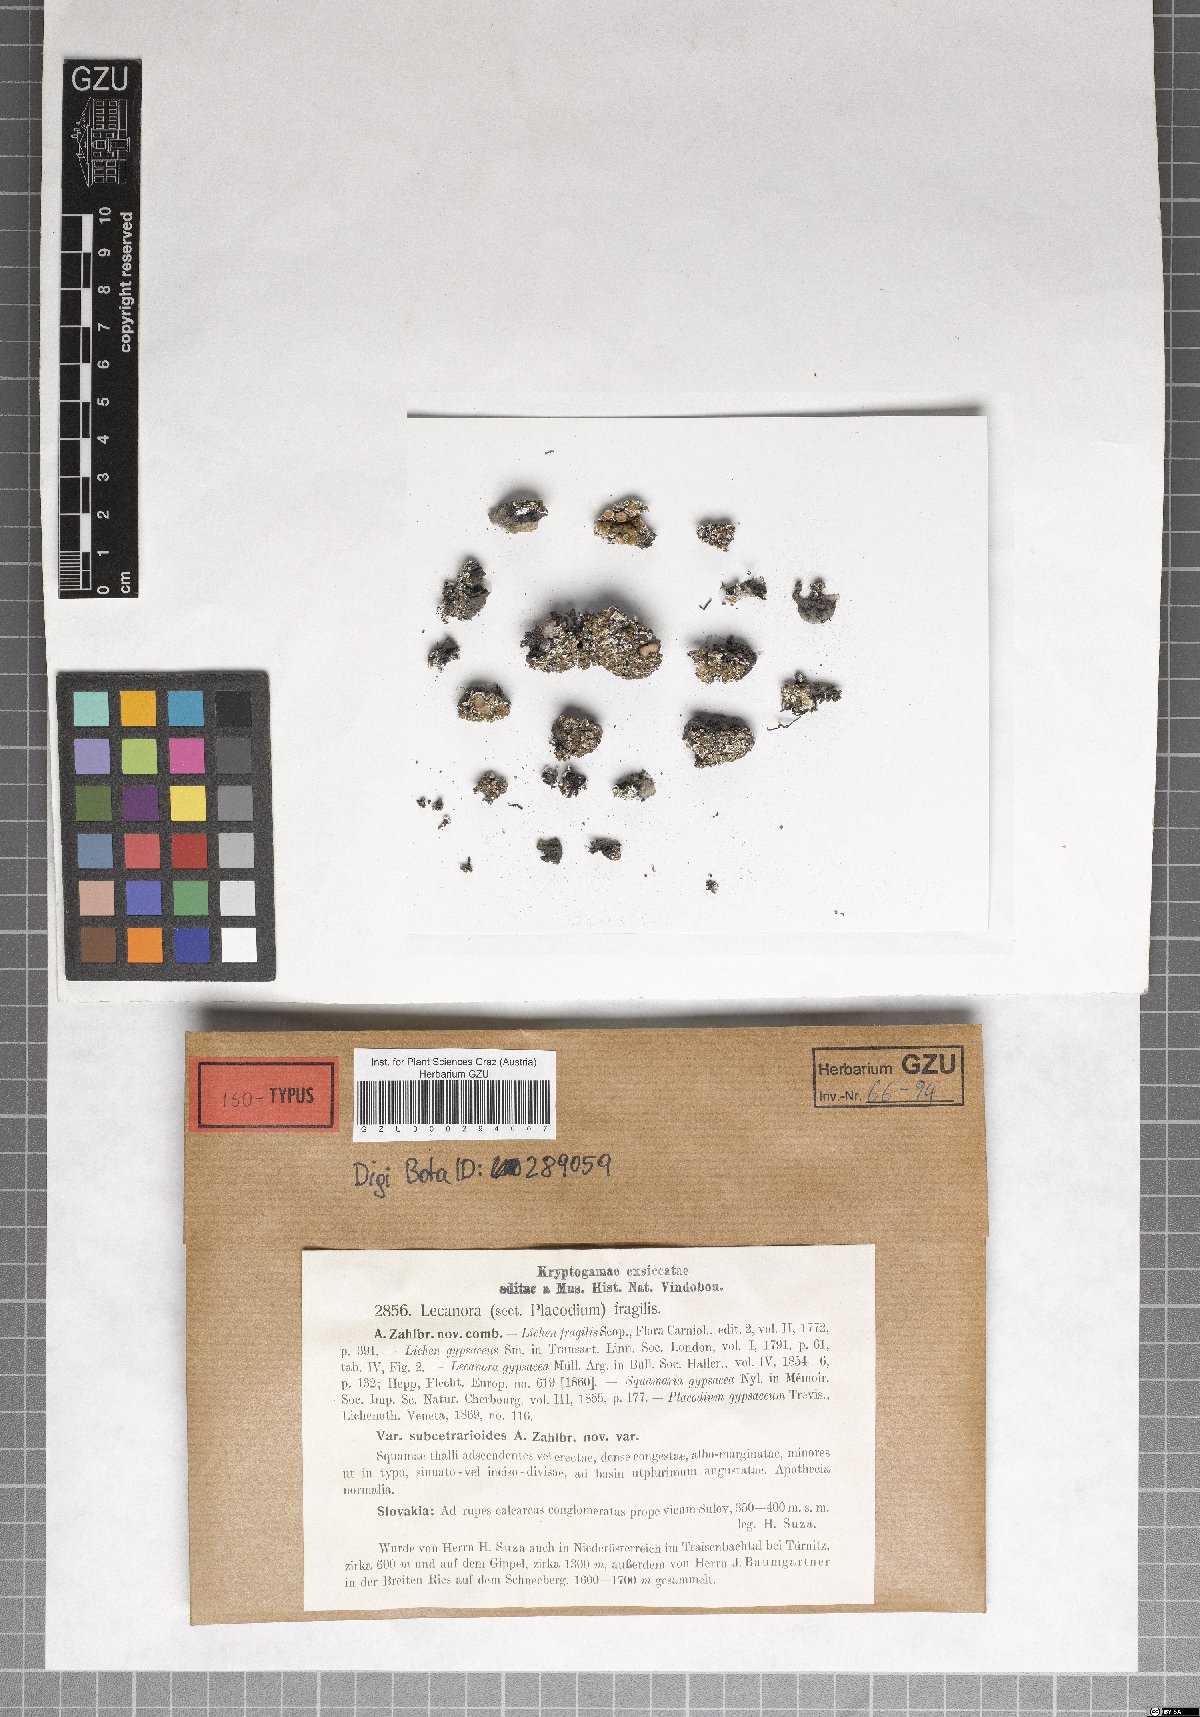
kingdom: Fungi
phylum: Ascomycota
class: Lecanoromycetes
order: Lecanorales
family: Stereocaulaceae
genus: Squamarina
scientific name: Squamarina gypsacea
